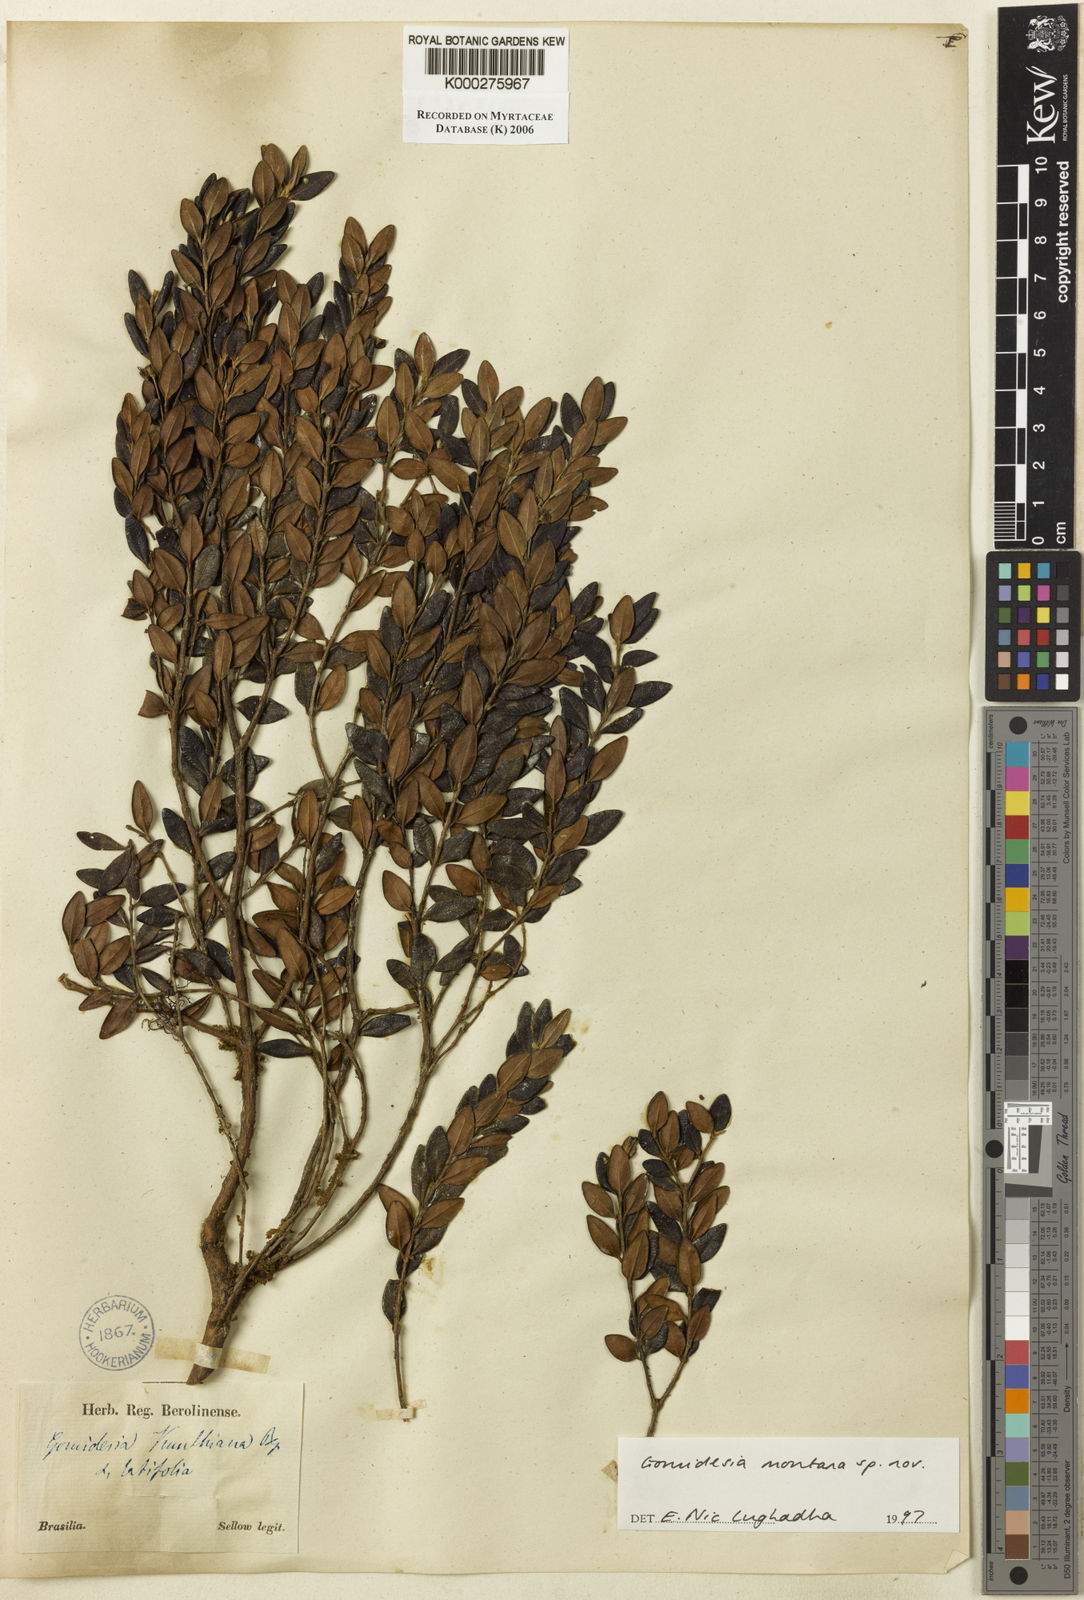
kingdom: Plantae
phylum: Tracheophyta
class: Magnoliopsida
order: Myrtales
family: Myrtaceae
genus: Myrcia
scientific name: Myrcia montana
